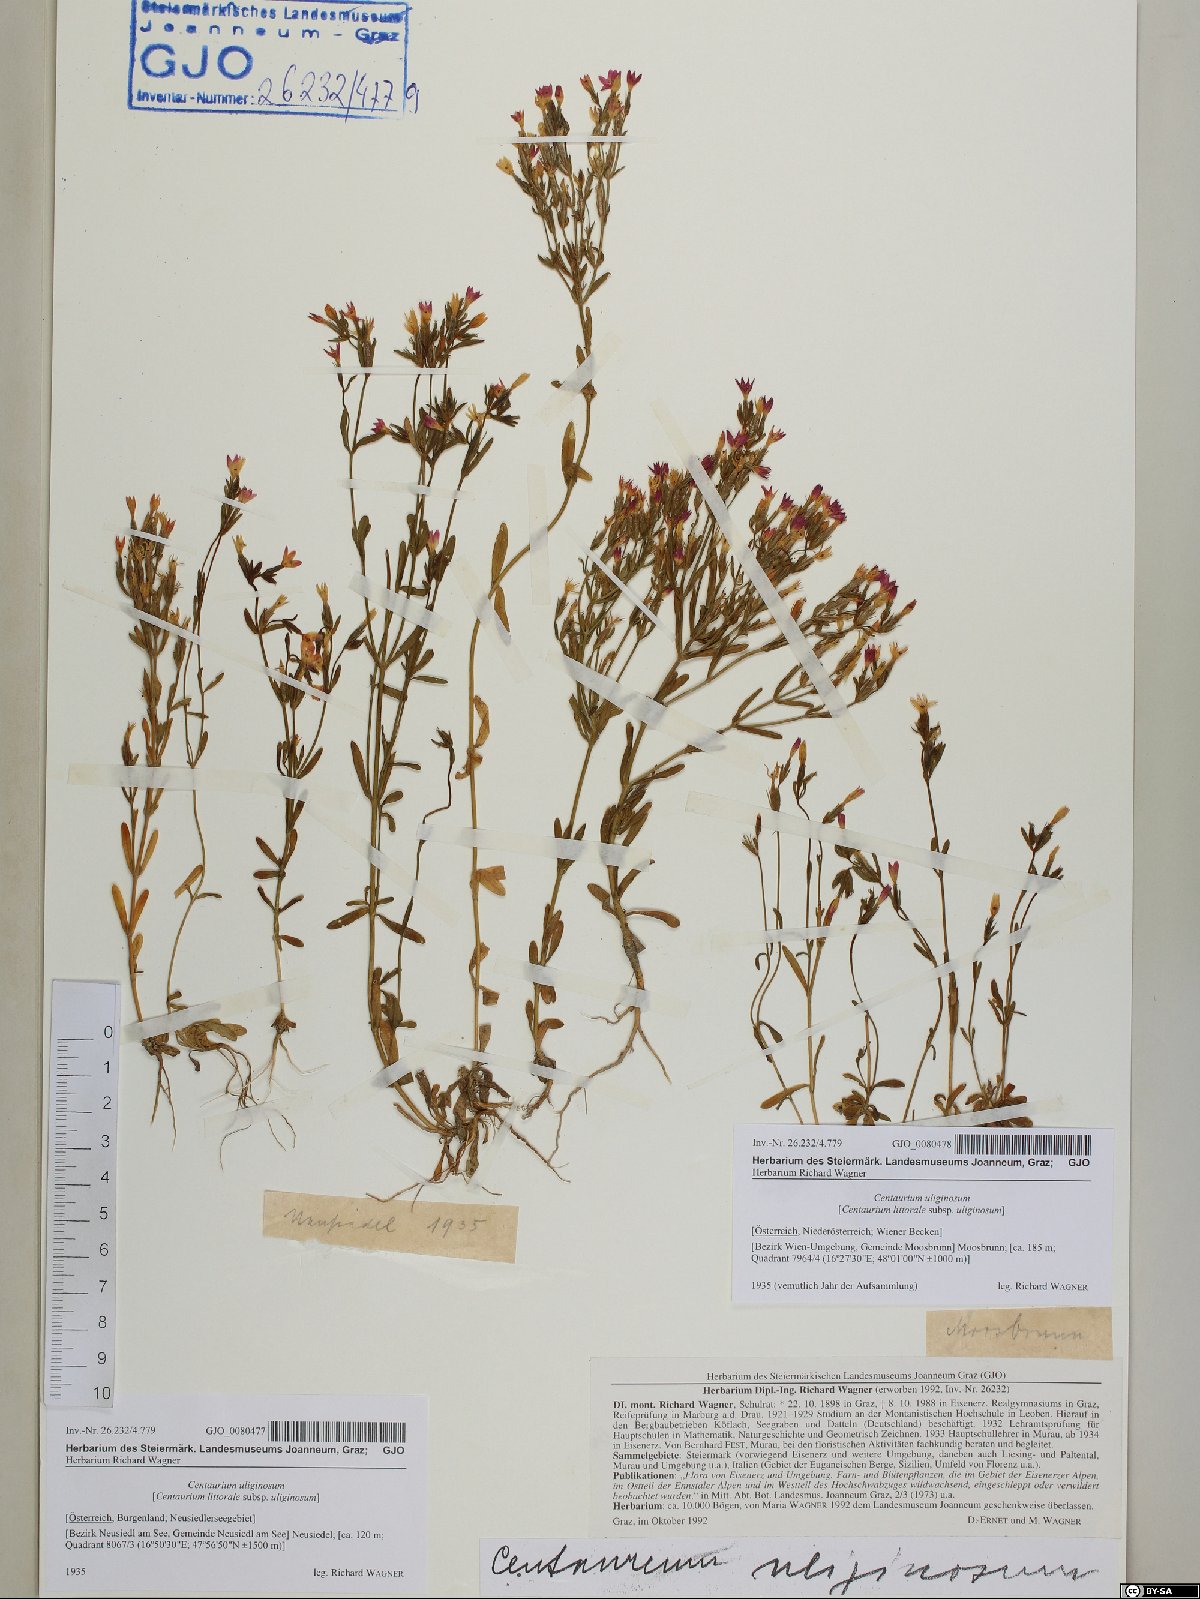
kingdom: Plantae
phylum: Tracheophyta
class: Magnoliopsida
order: Gentianales
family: Gentianaceae
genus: Centaurium
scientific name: Centaurium littorale
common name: Seaside centaury
